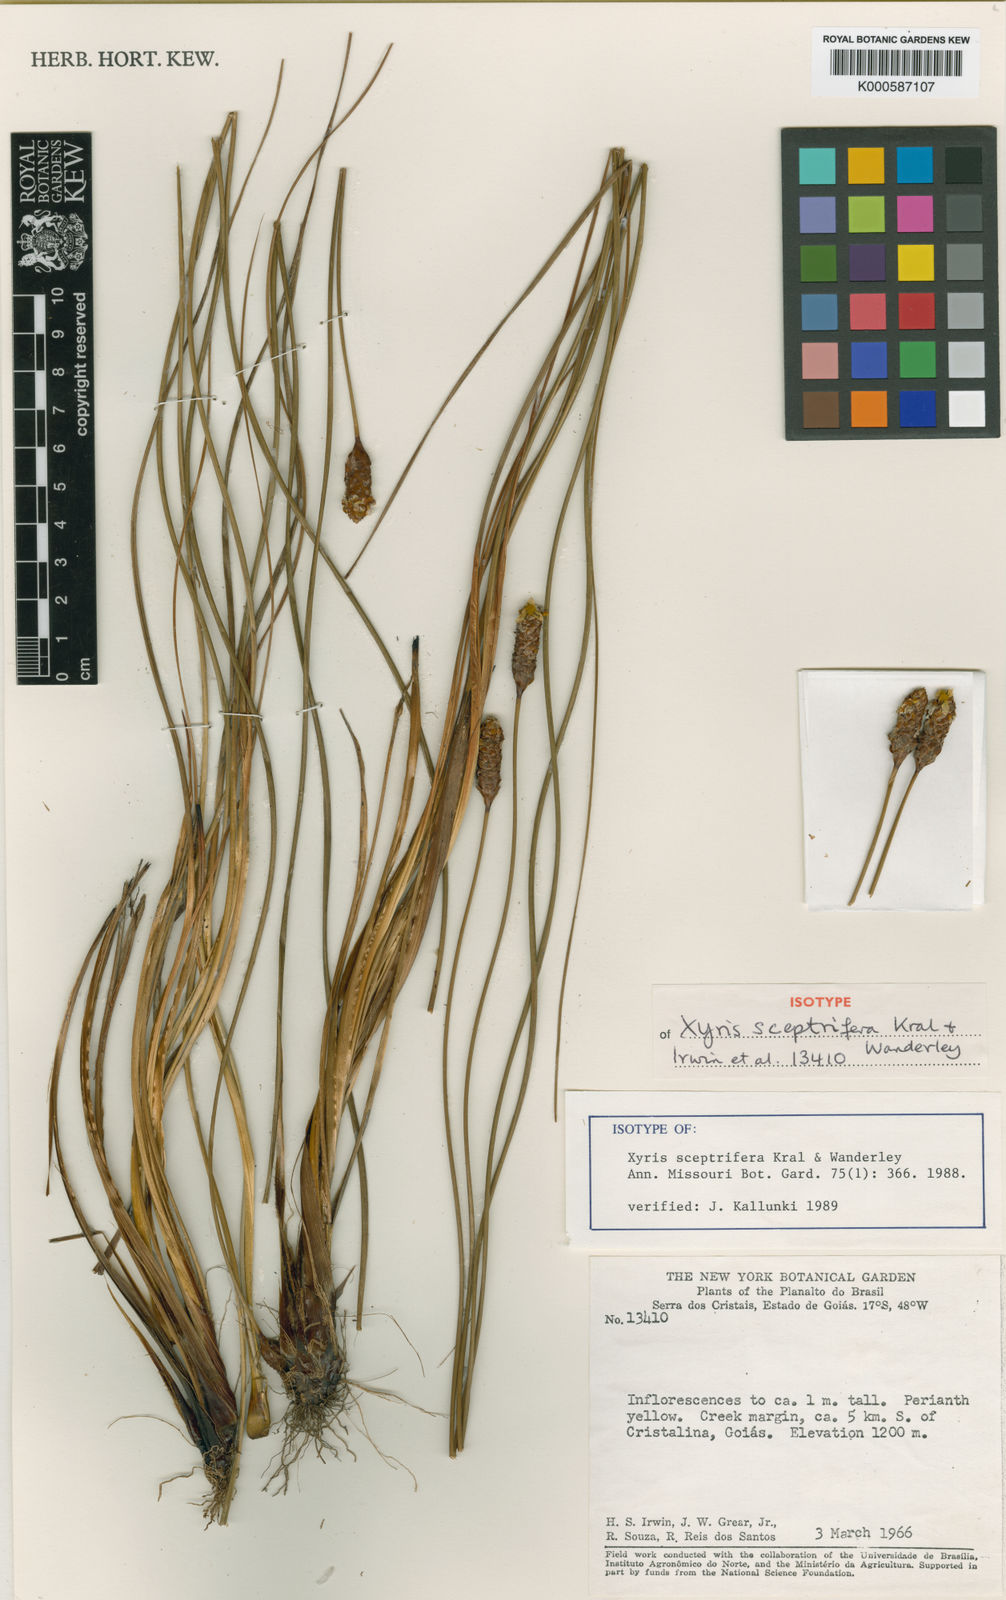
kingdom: Plantae
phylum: Tracheophyta
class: Liliopsida
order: Poales
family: Xyridaceae
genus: Xyris
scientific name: Xyris sceptrifera
